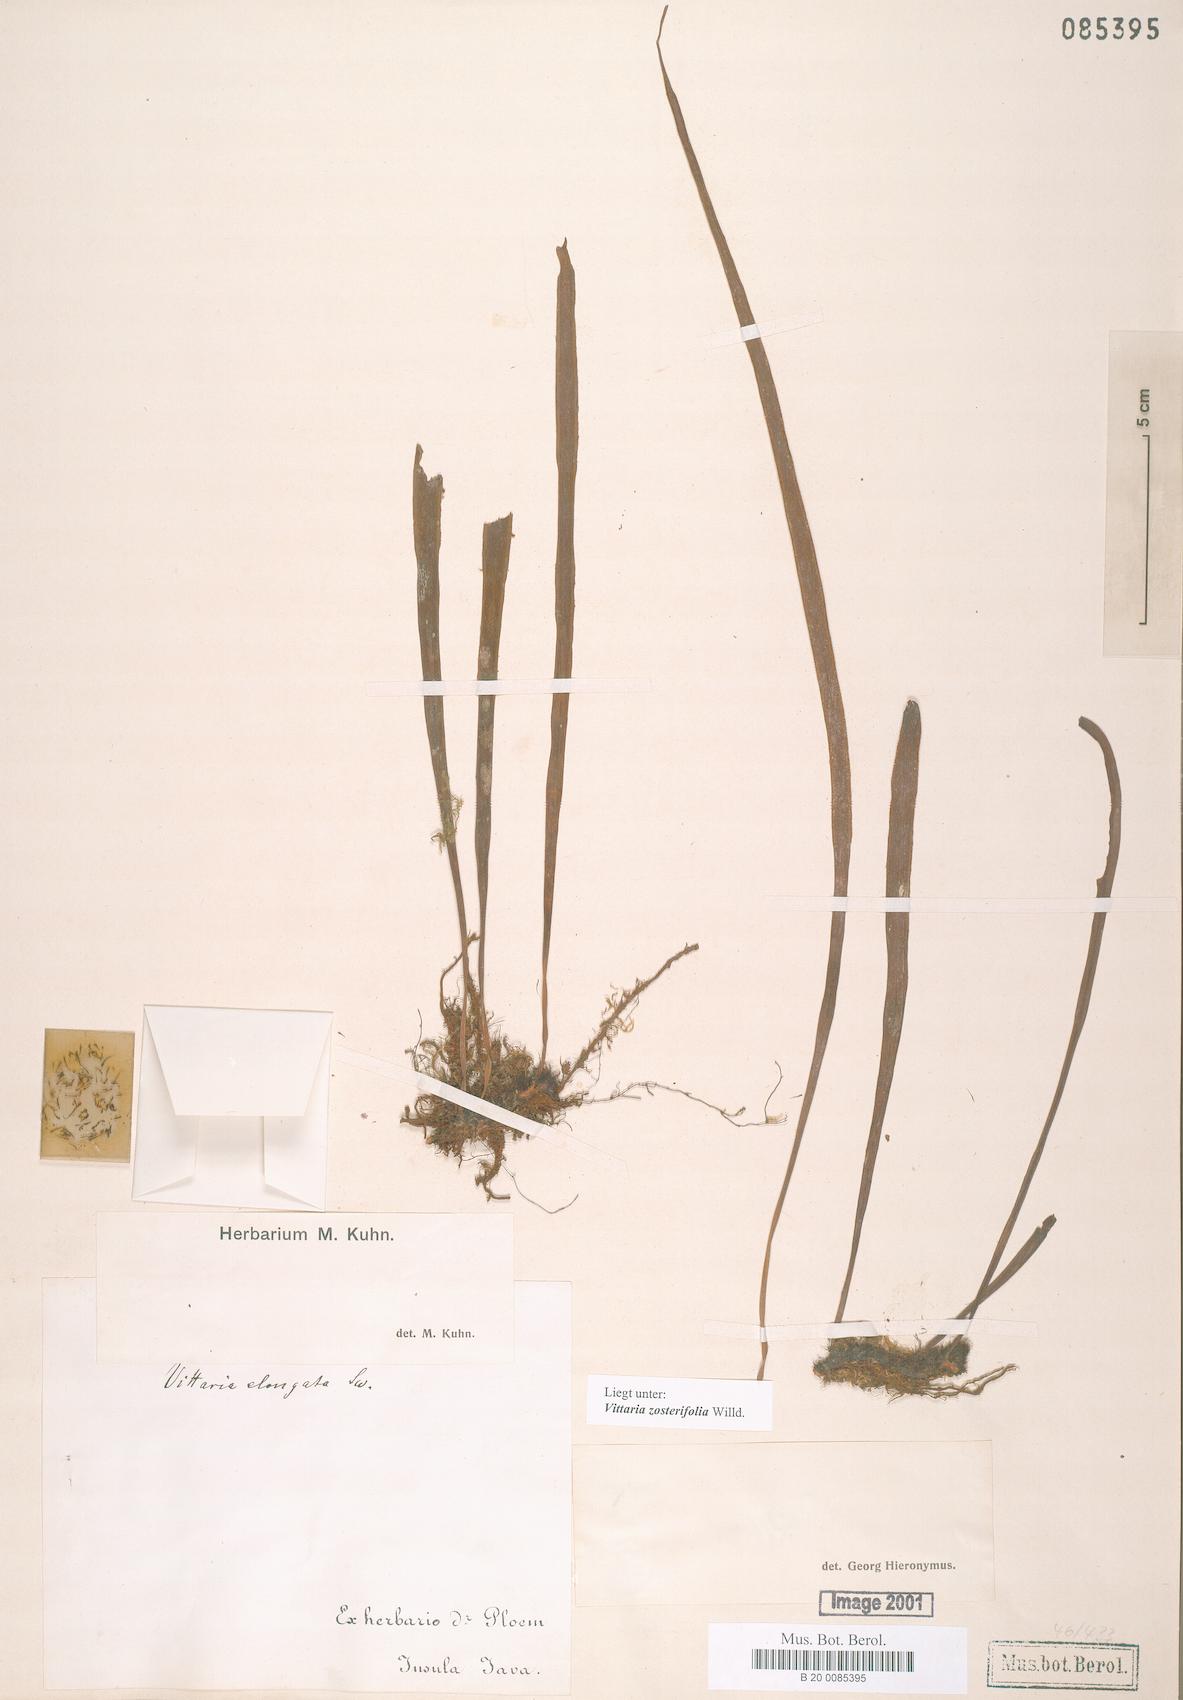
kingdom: Plantae
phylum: Tracheophyta
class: Polypodiopsida
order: Polypodiales
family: Pteridaceae
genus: Haplopteris
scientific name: Haplopteris zosterifolia
